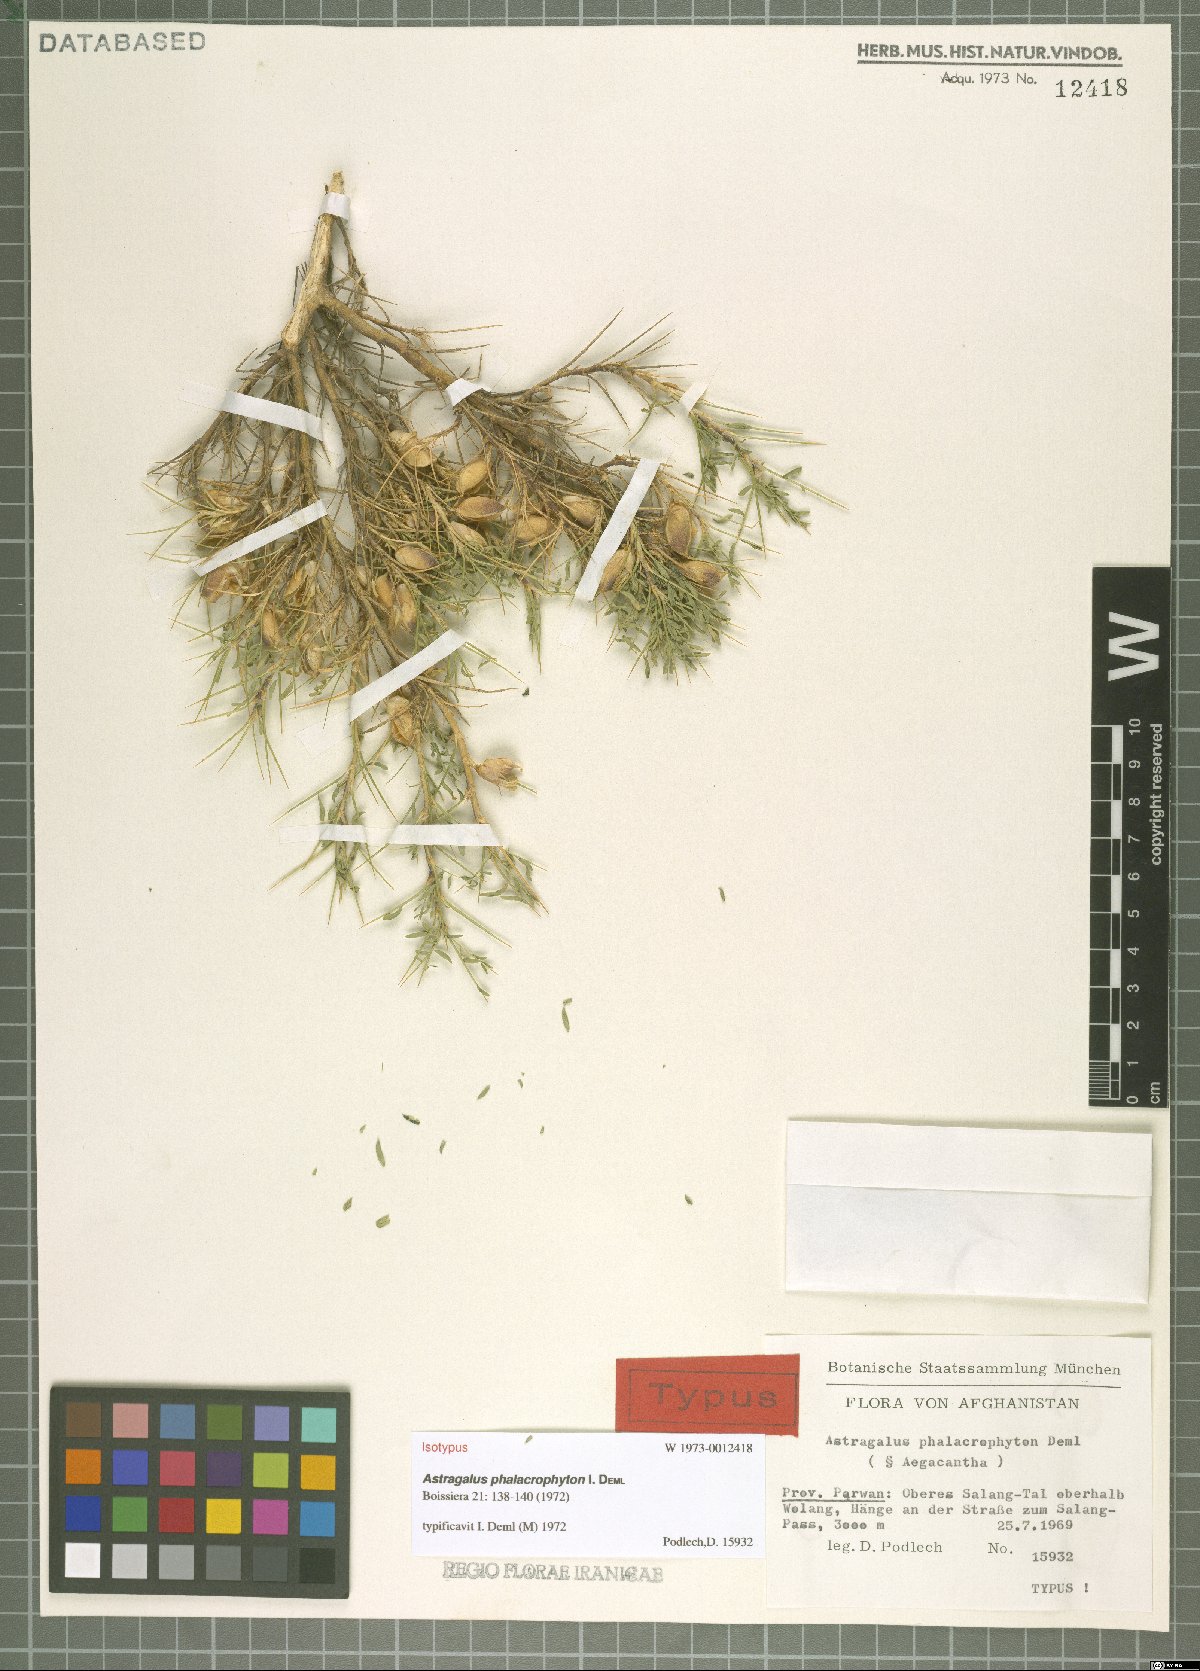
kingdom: Plantae
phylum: Tracheophyta
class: Magnoliopsida
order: Fabales
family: Fabaceae
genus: Astragalus
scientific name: Astragalus phalacrophyton
